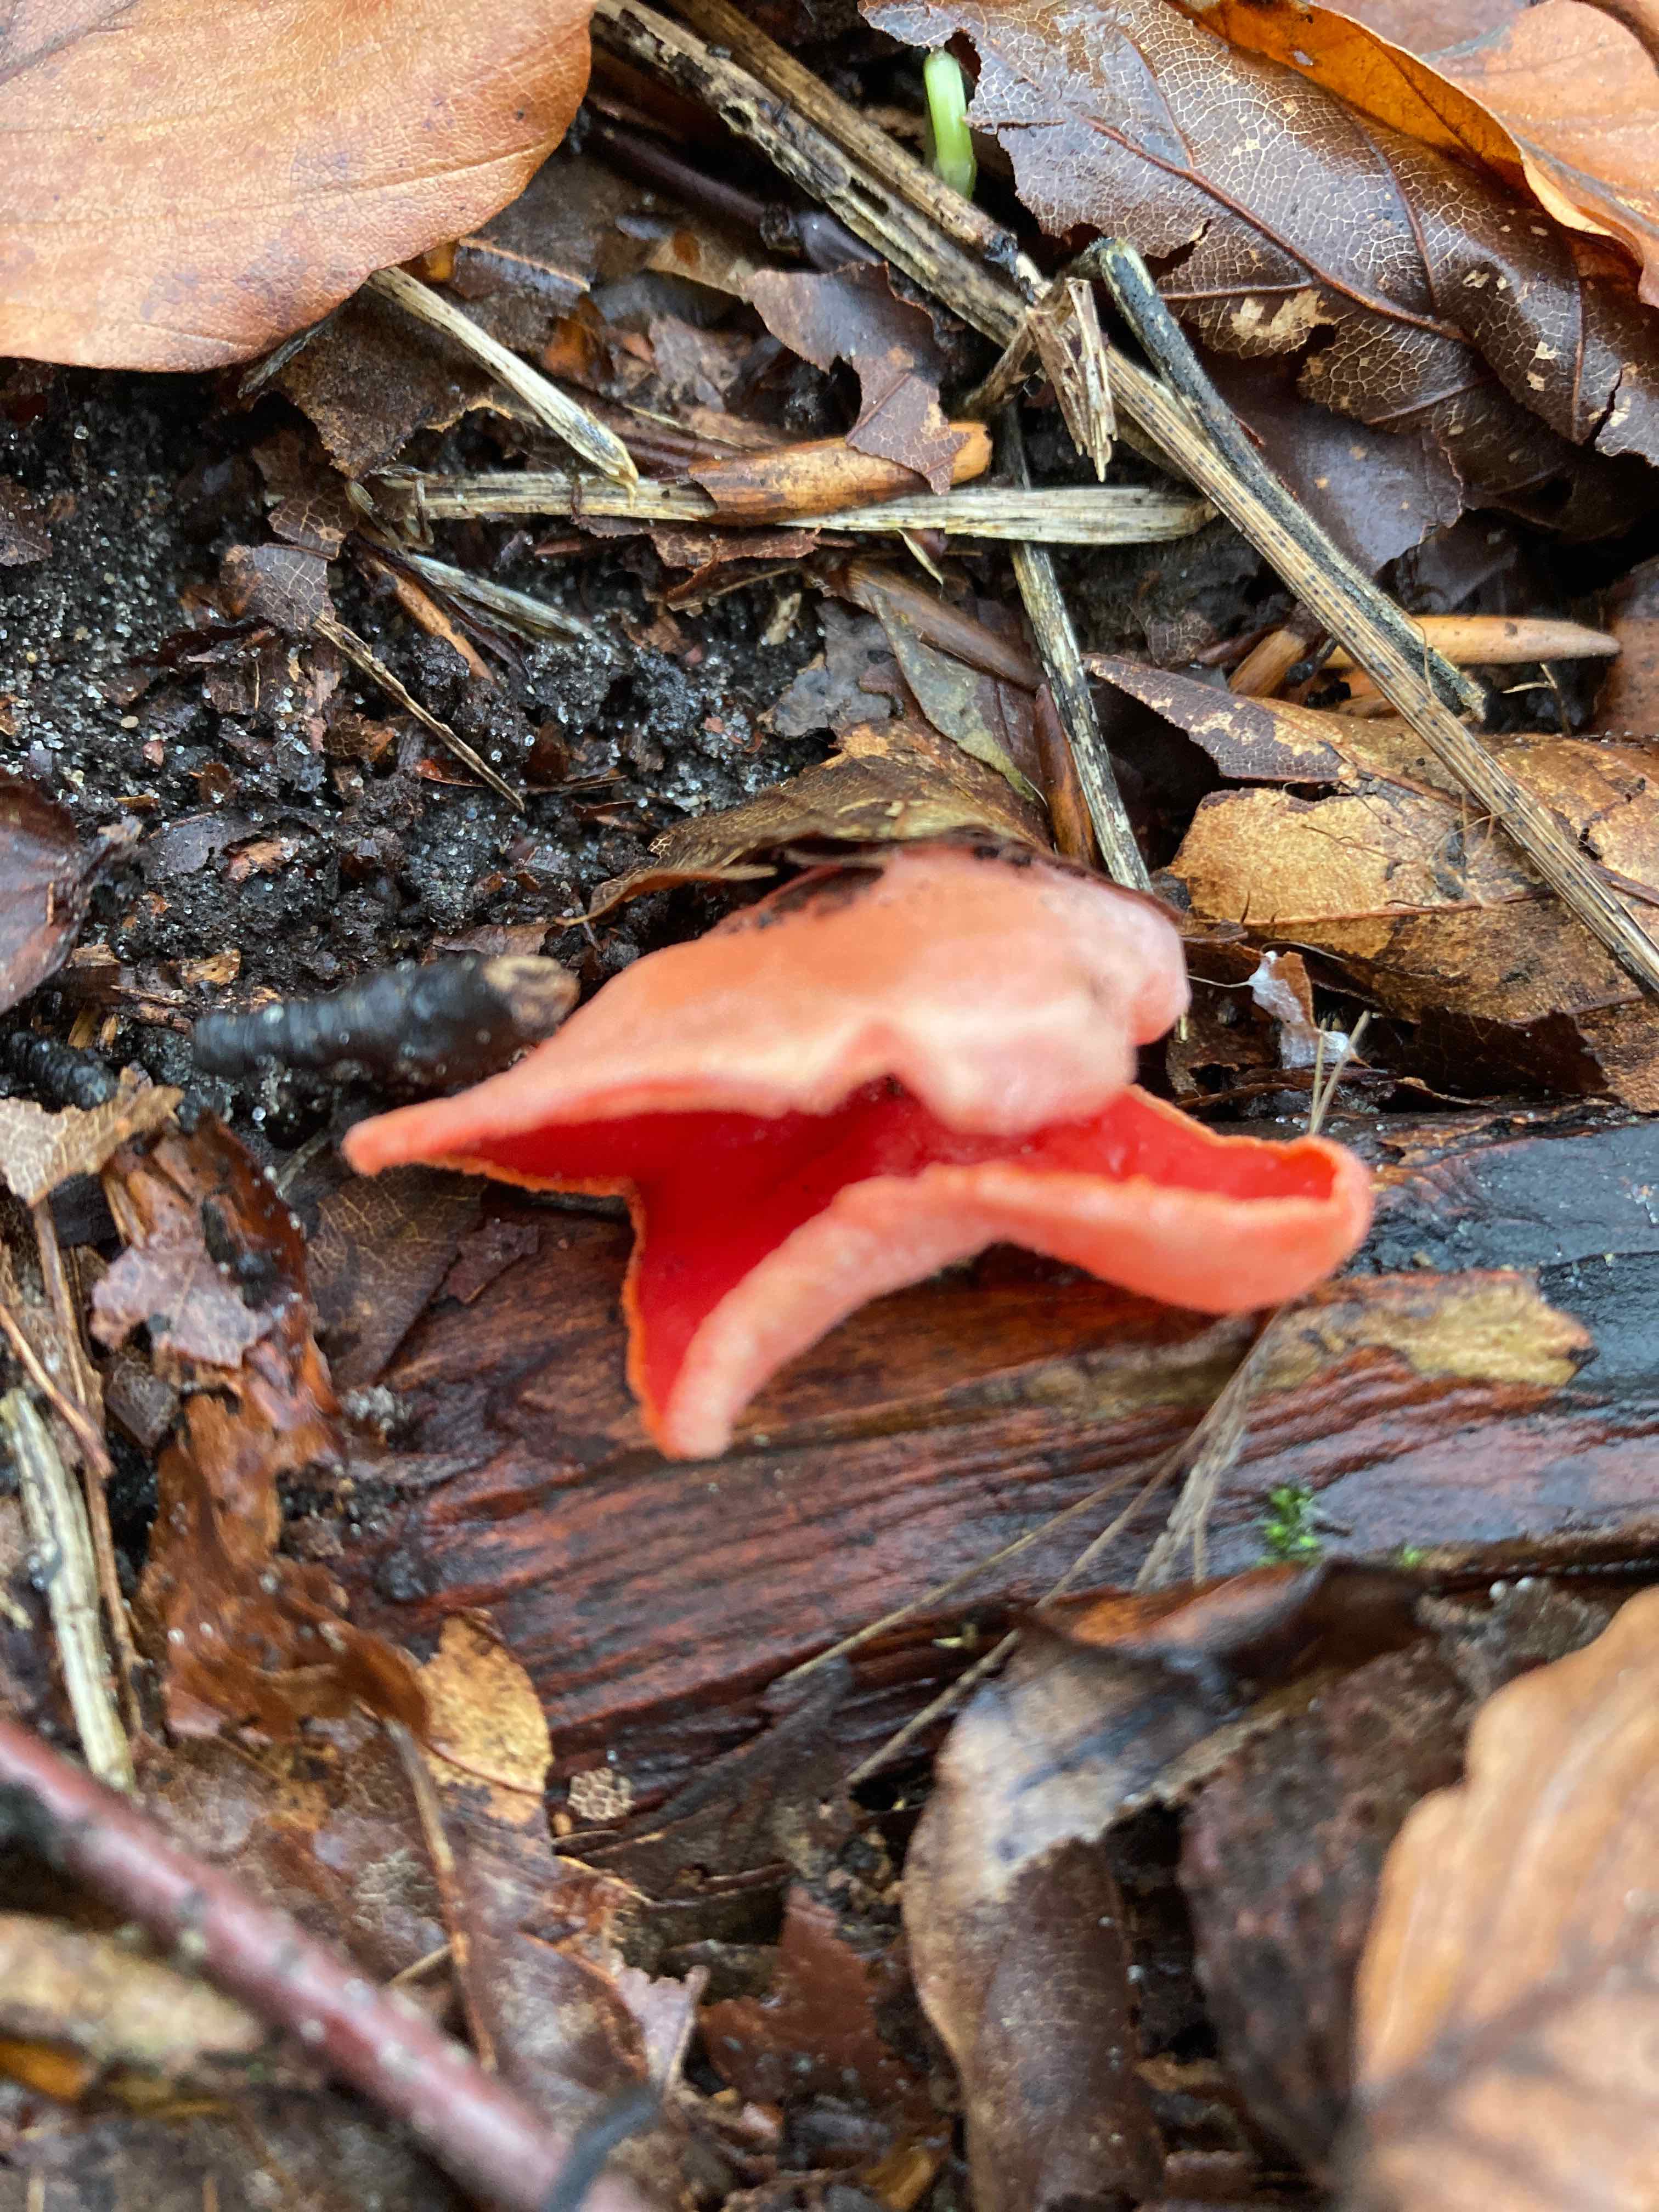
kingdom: Fungi
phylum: Ascomycota
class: Pezizomycetes
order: Pezizales
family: Sarcoscyphaceae
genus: Sarcoscypha
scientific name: Sarcoscypha austriaca
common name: krølhåret pragtbæger
